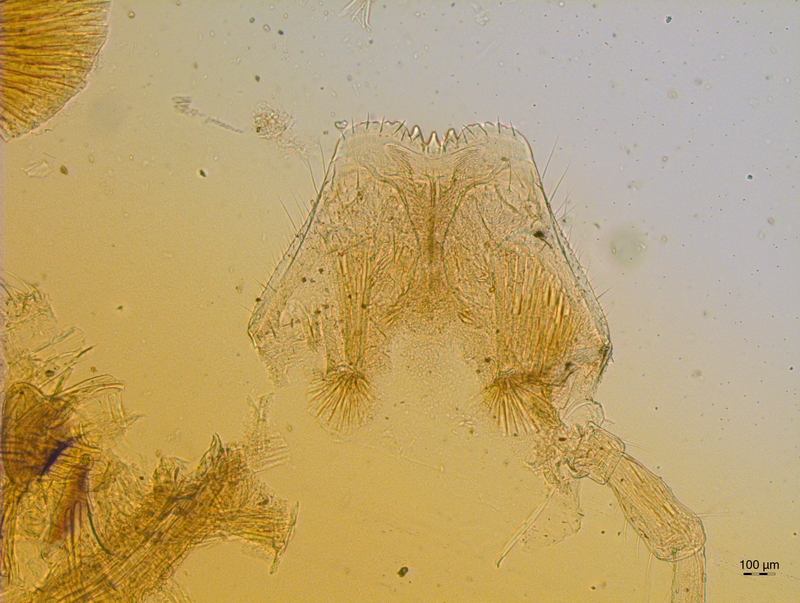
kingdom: Animalia
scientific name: Animalia
